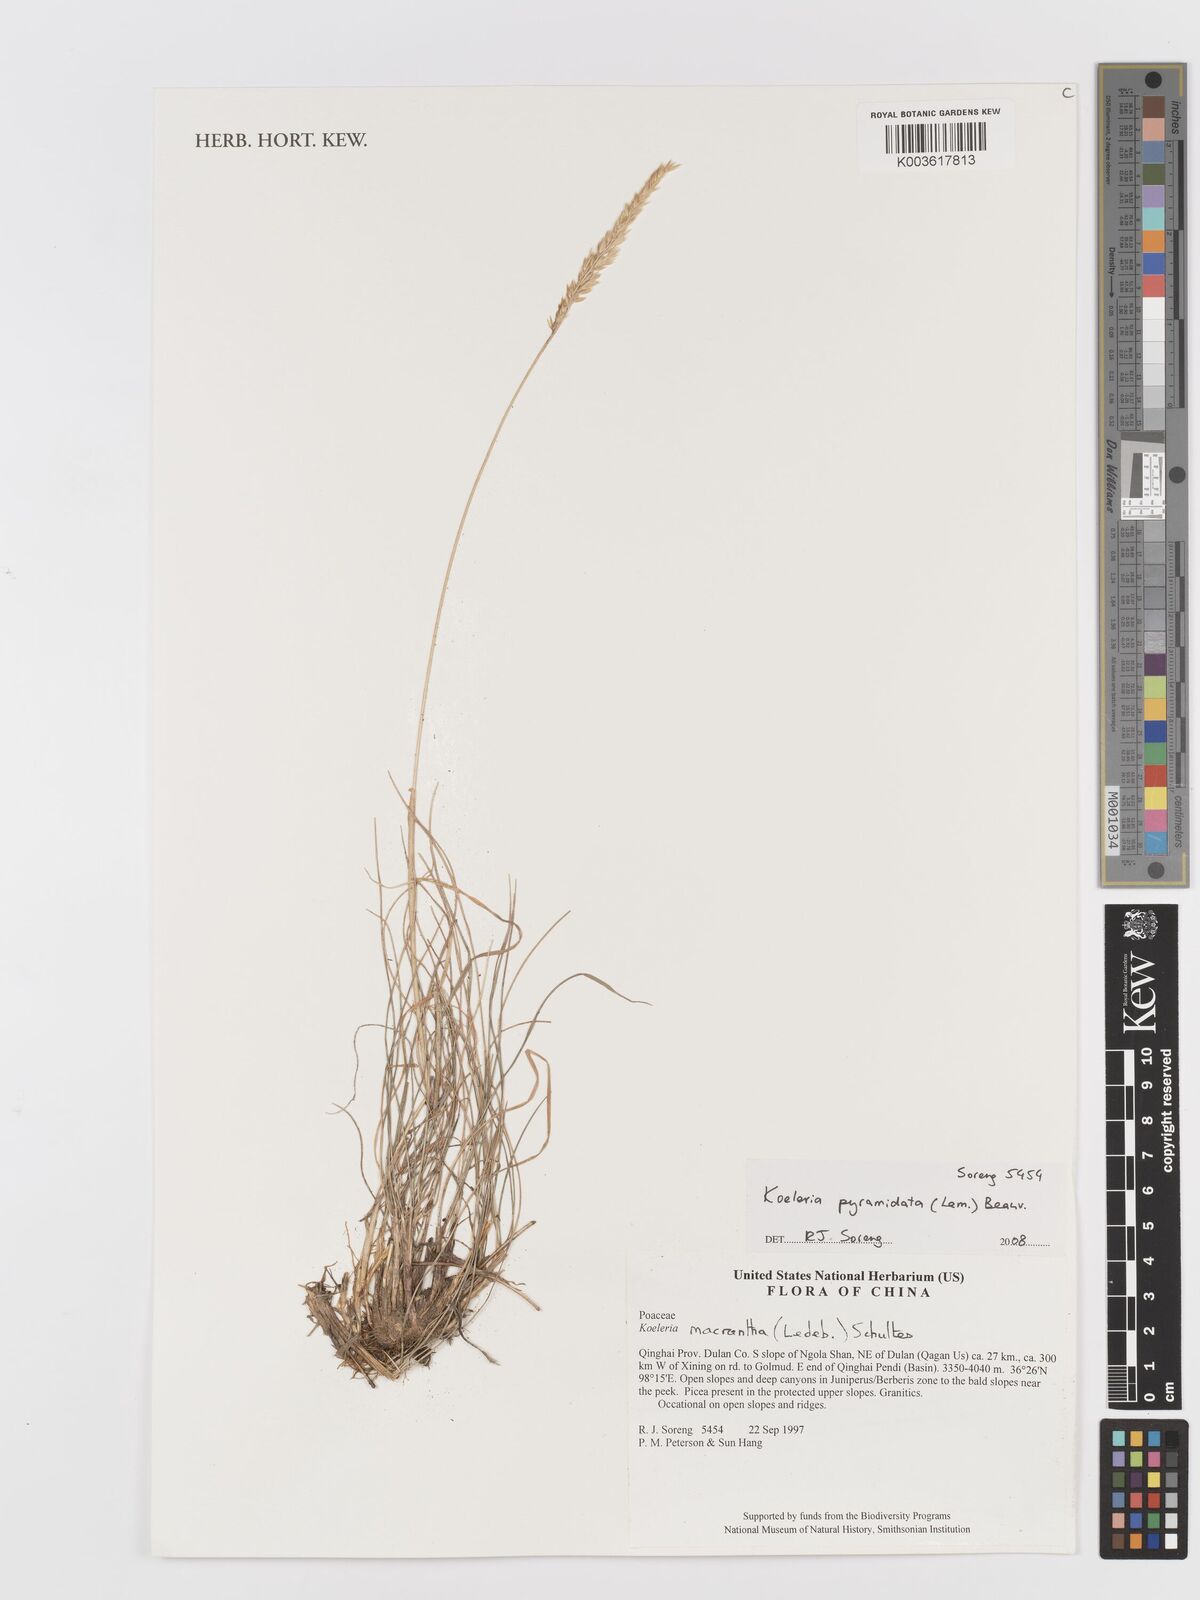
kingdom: Plantae
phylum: Tracheophyta
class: Liliopsida
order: Poales
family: Poaceae
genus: Koeleria
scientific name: Koeleria pyramidata
